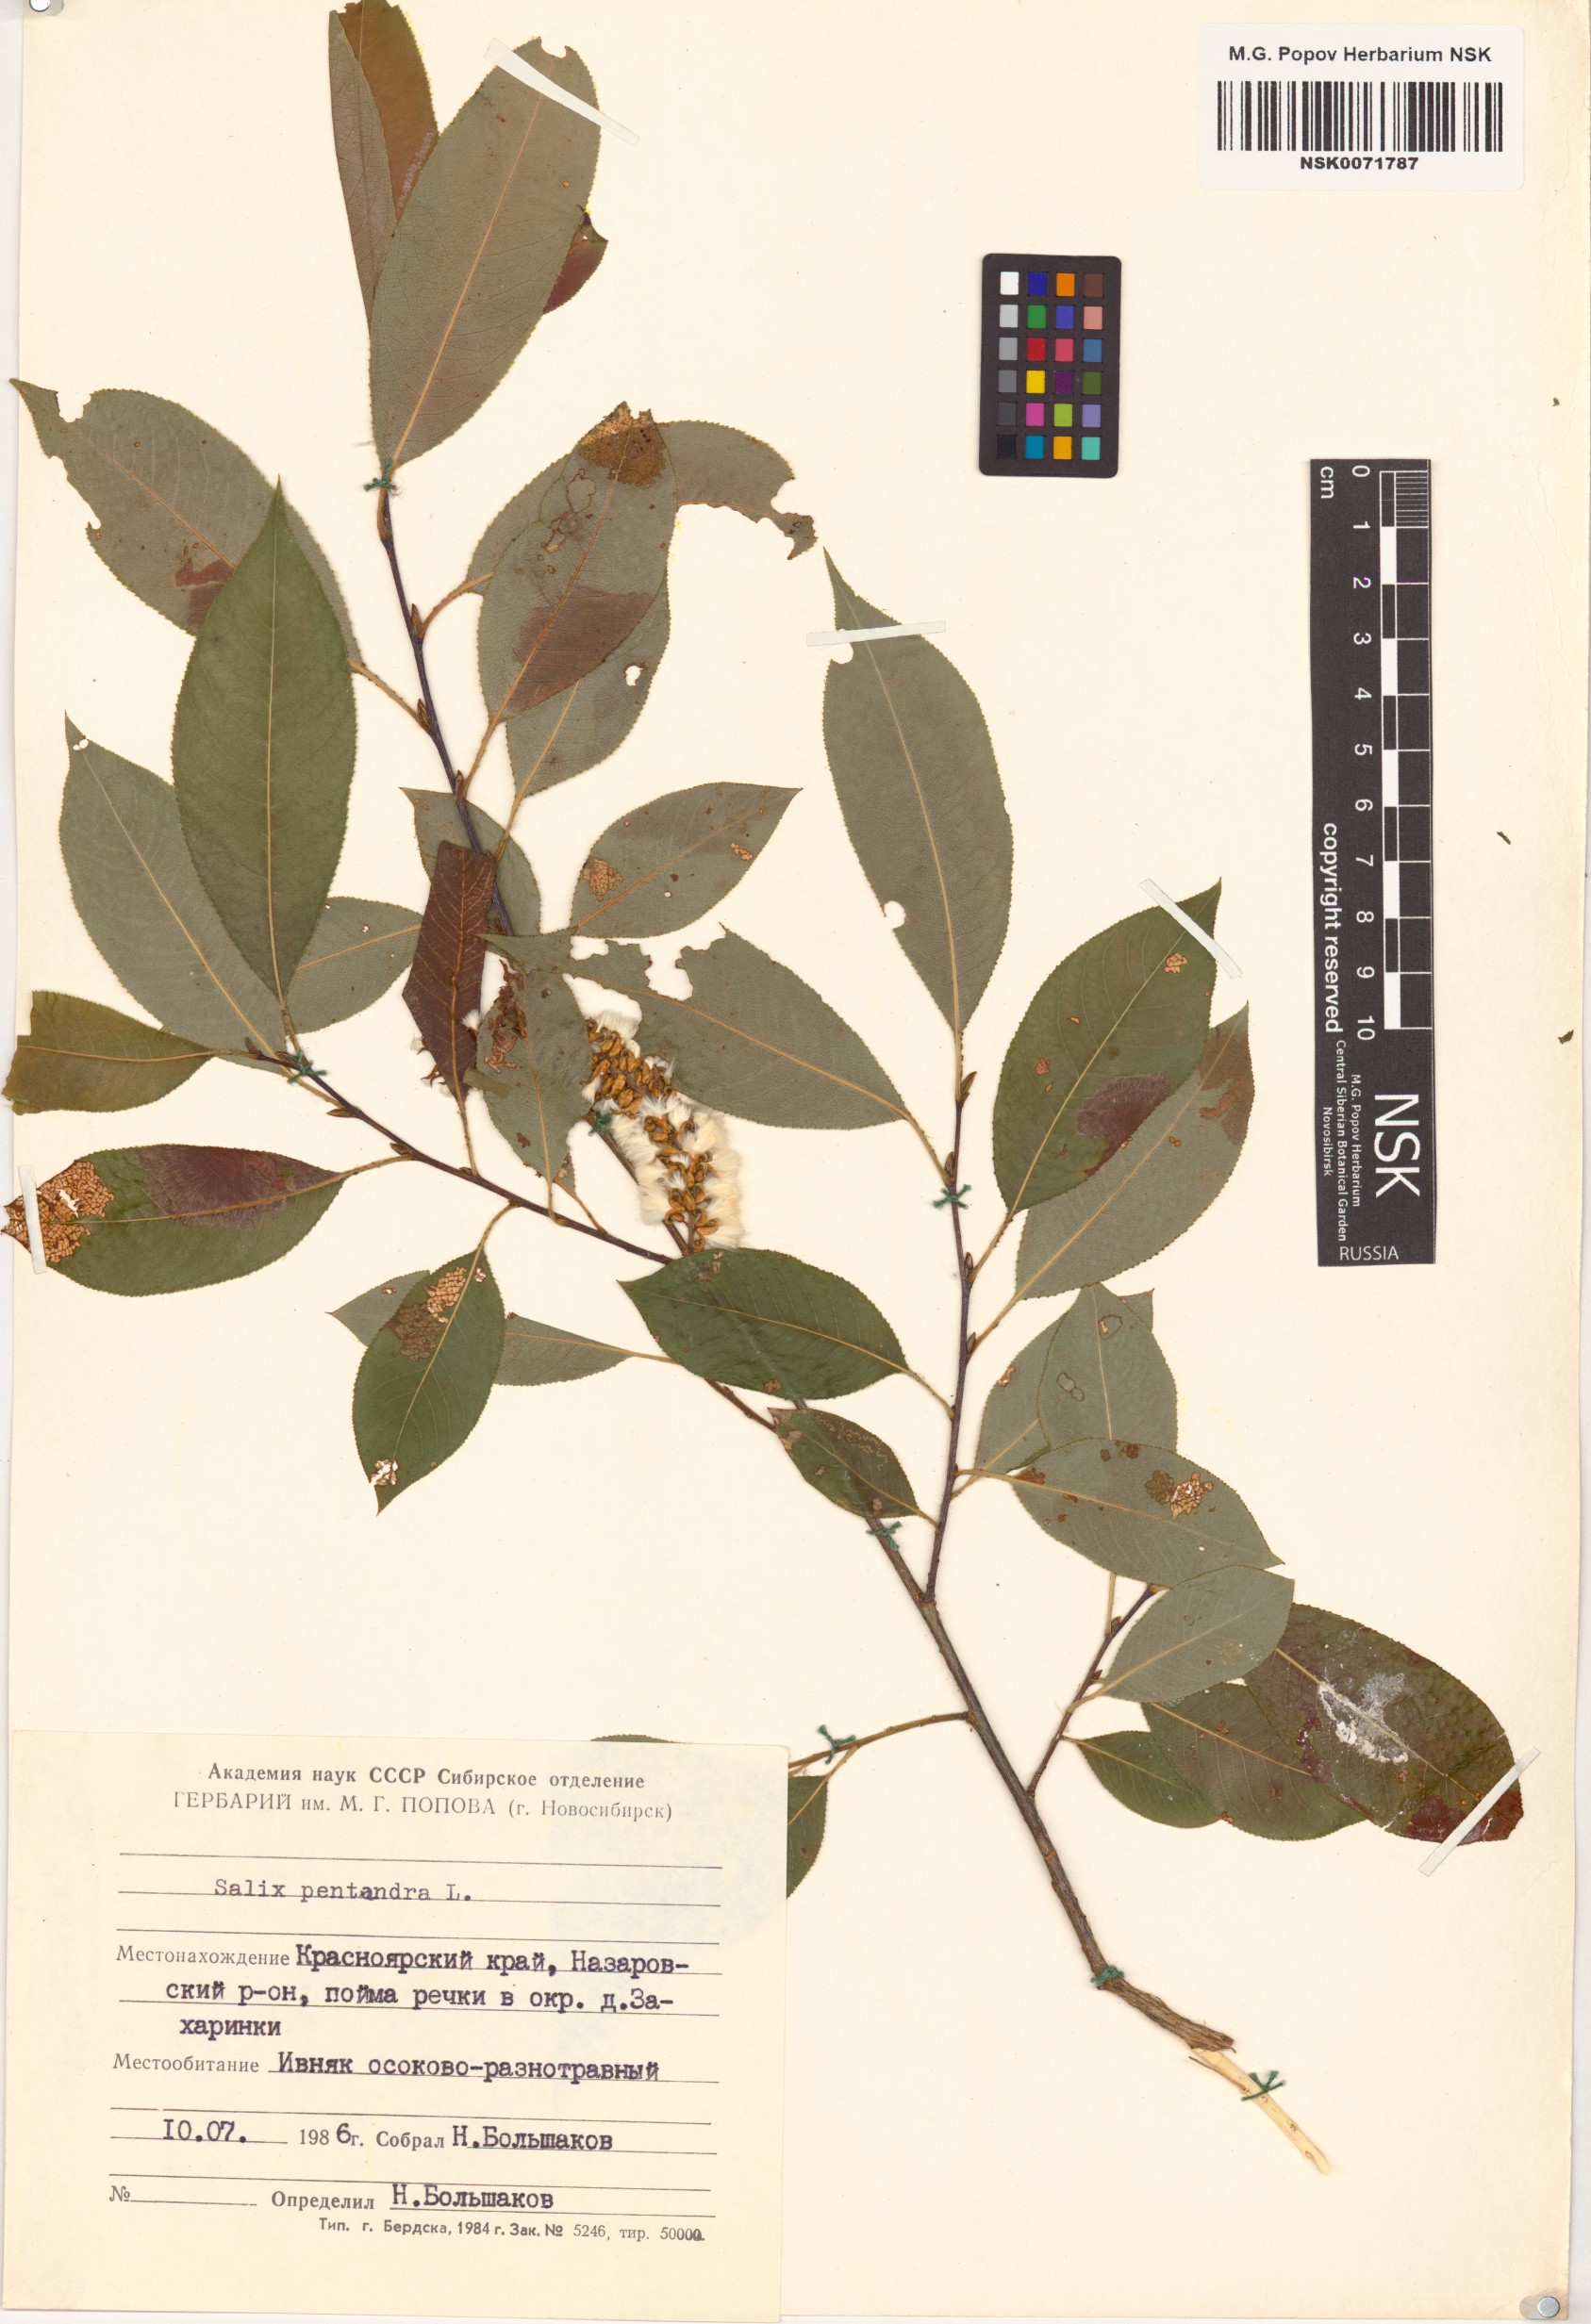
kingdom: Plantae
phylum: Tracheophyta
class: Magnoliopsida
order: Malpighiales
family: Salicaceae
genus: Salix
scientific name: Salix pentandra
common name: Bay willow
